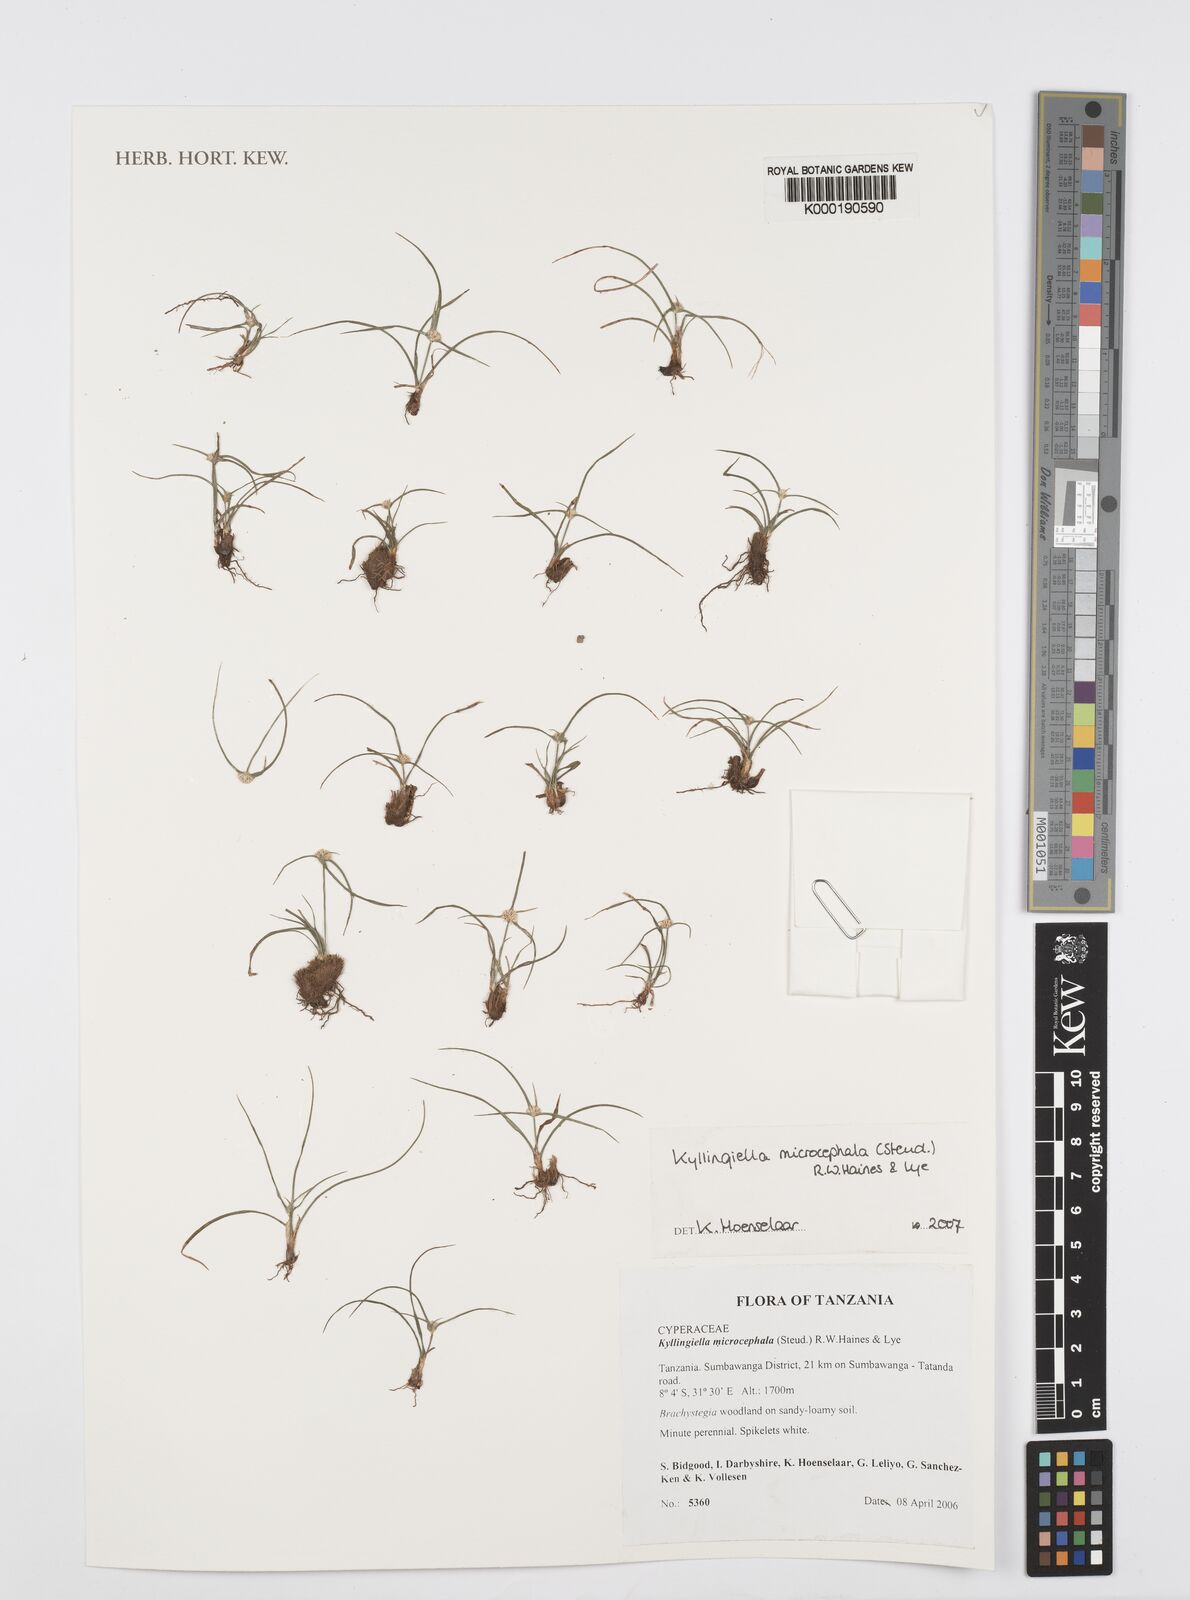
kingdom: Plantae
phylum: Tracheophyta
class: Liliopsida
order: Poales
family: Cyperaceae
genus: Cyperus
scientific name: Cyperus kyllingiella
